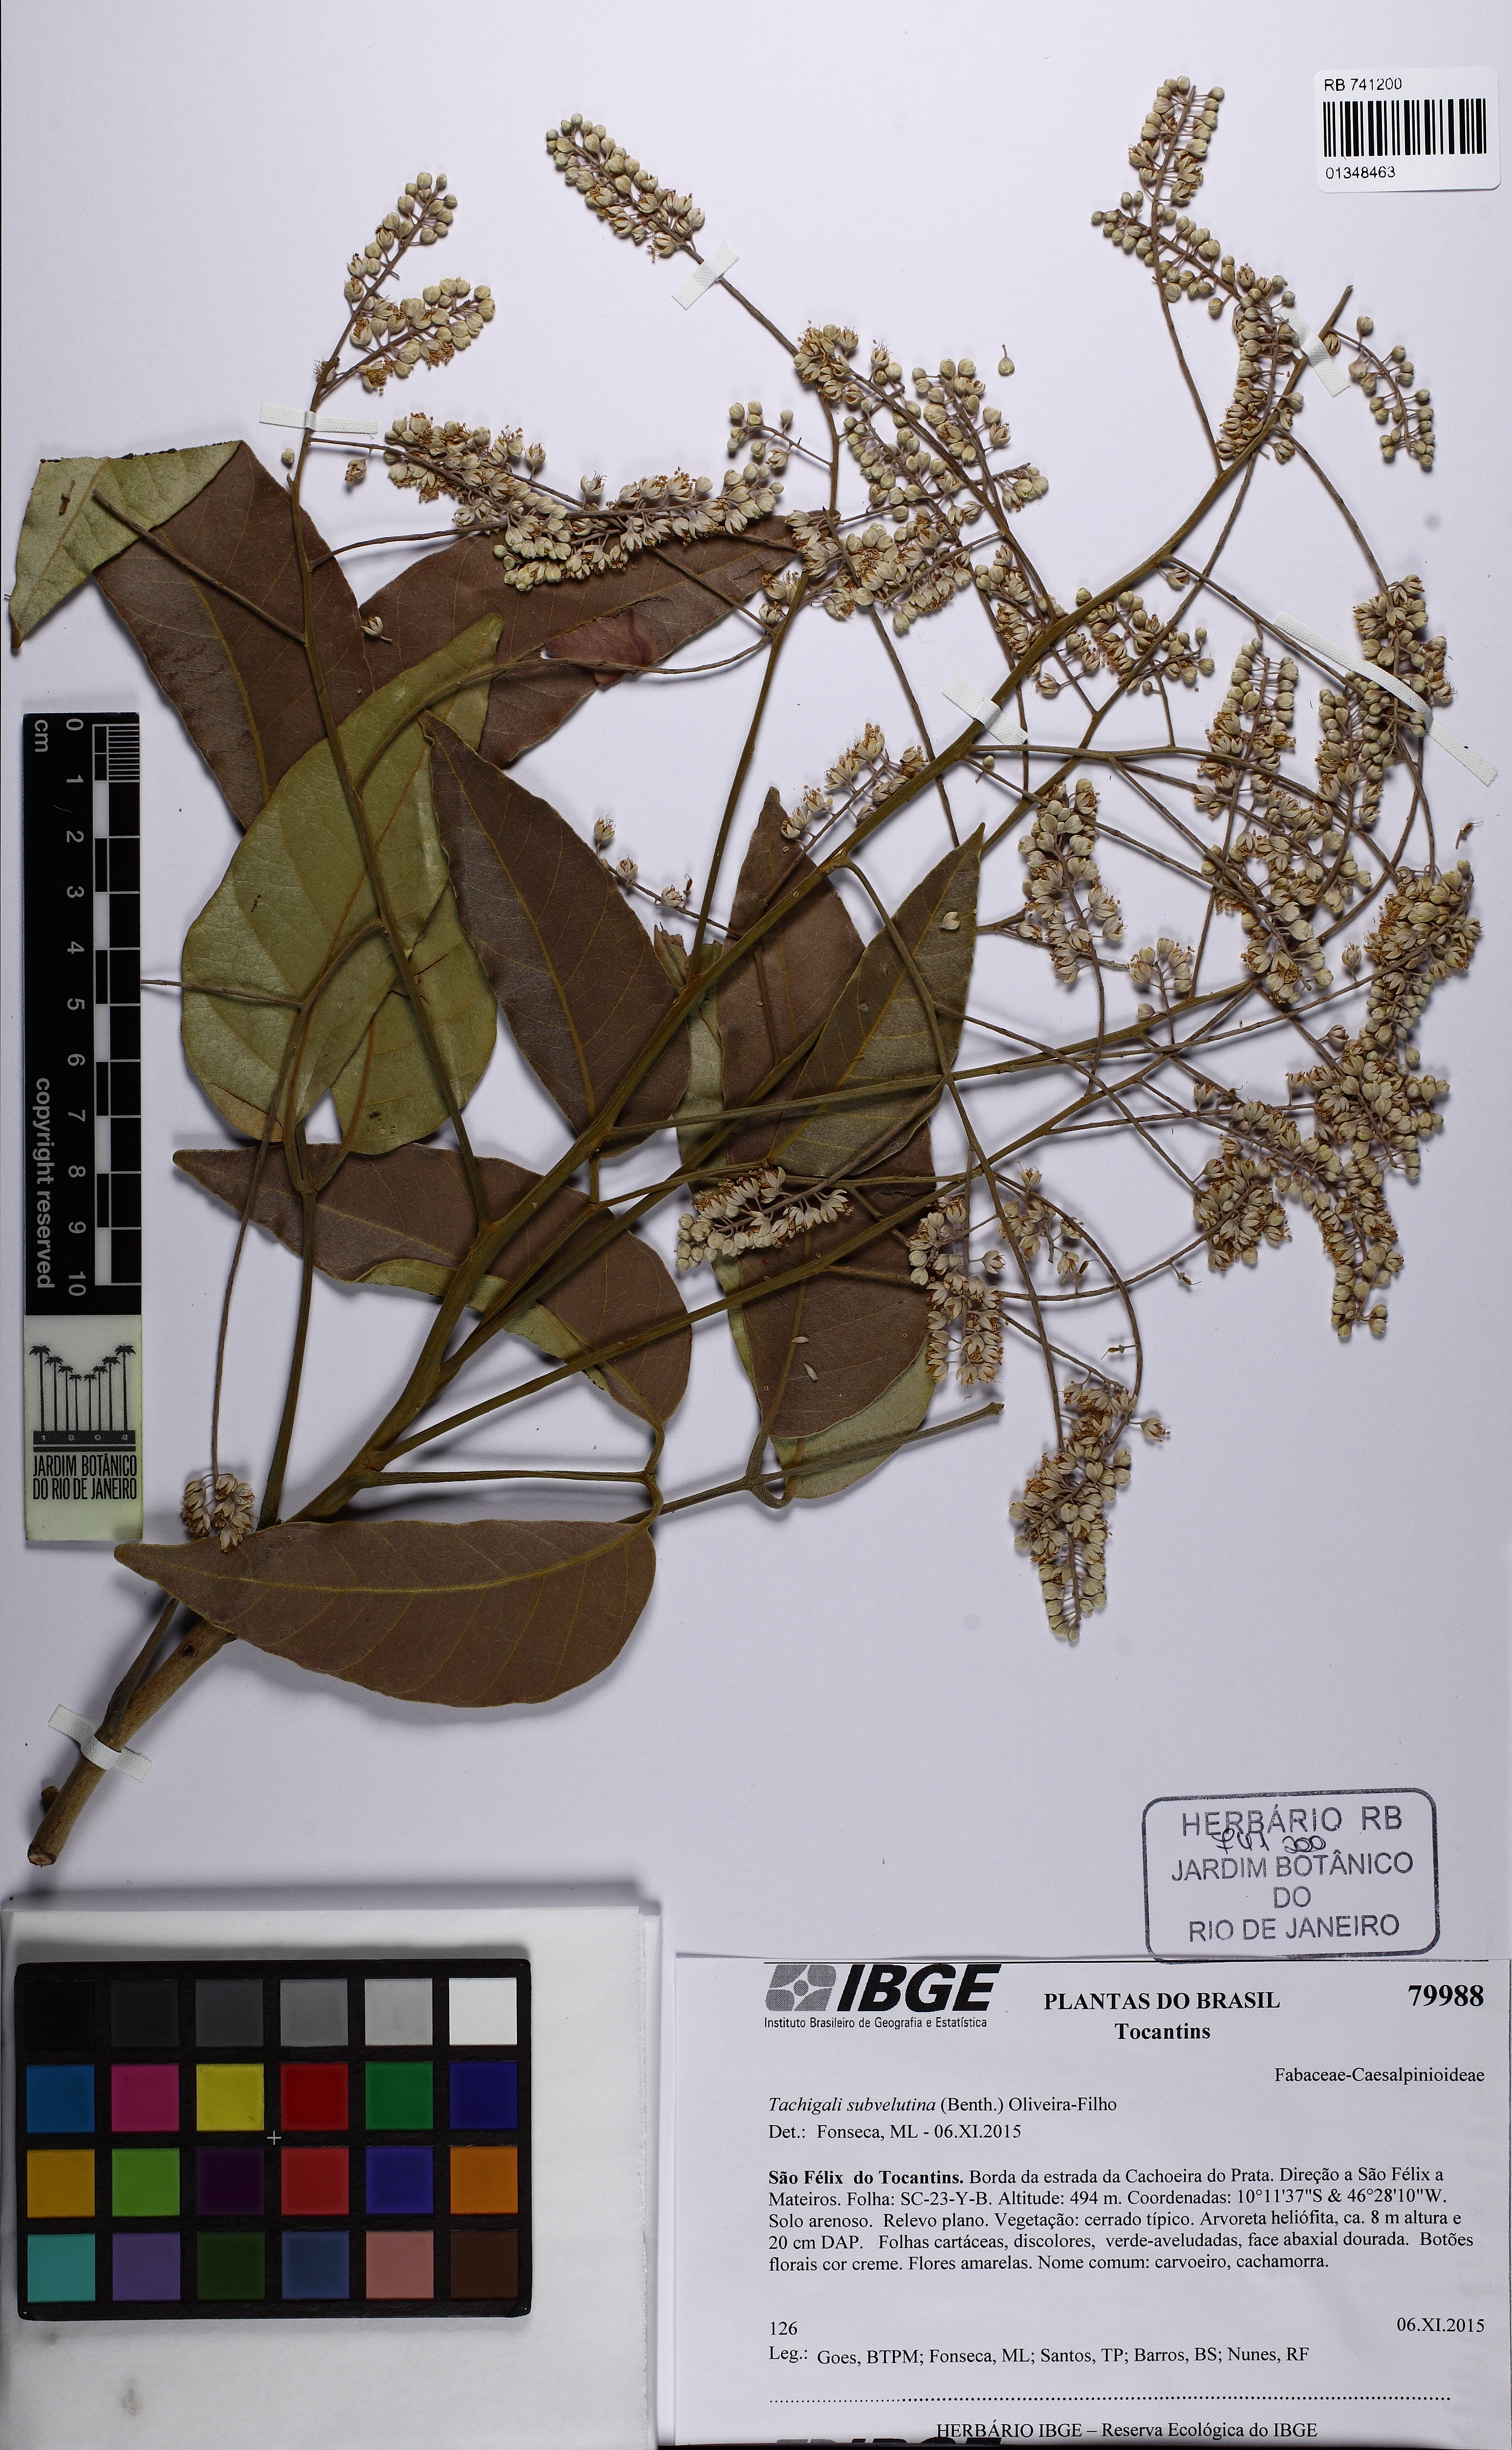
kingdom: Plantae
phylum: Tracheophyta
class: Magnoliopsida
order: Fabales
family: Fabaceae
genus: Tachigali
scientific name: Tachigali subvelutina
